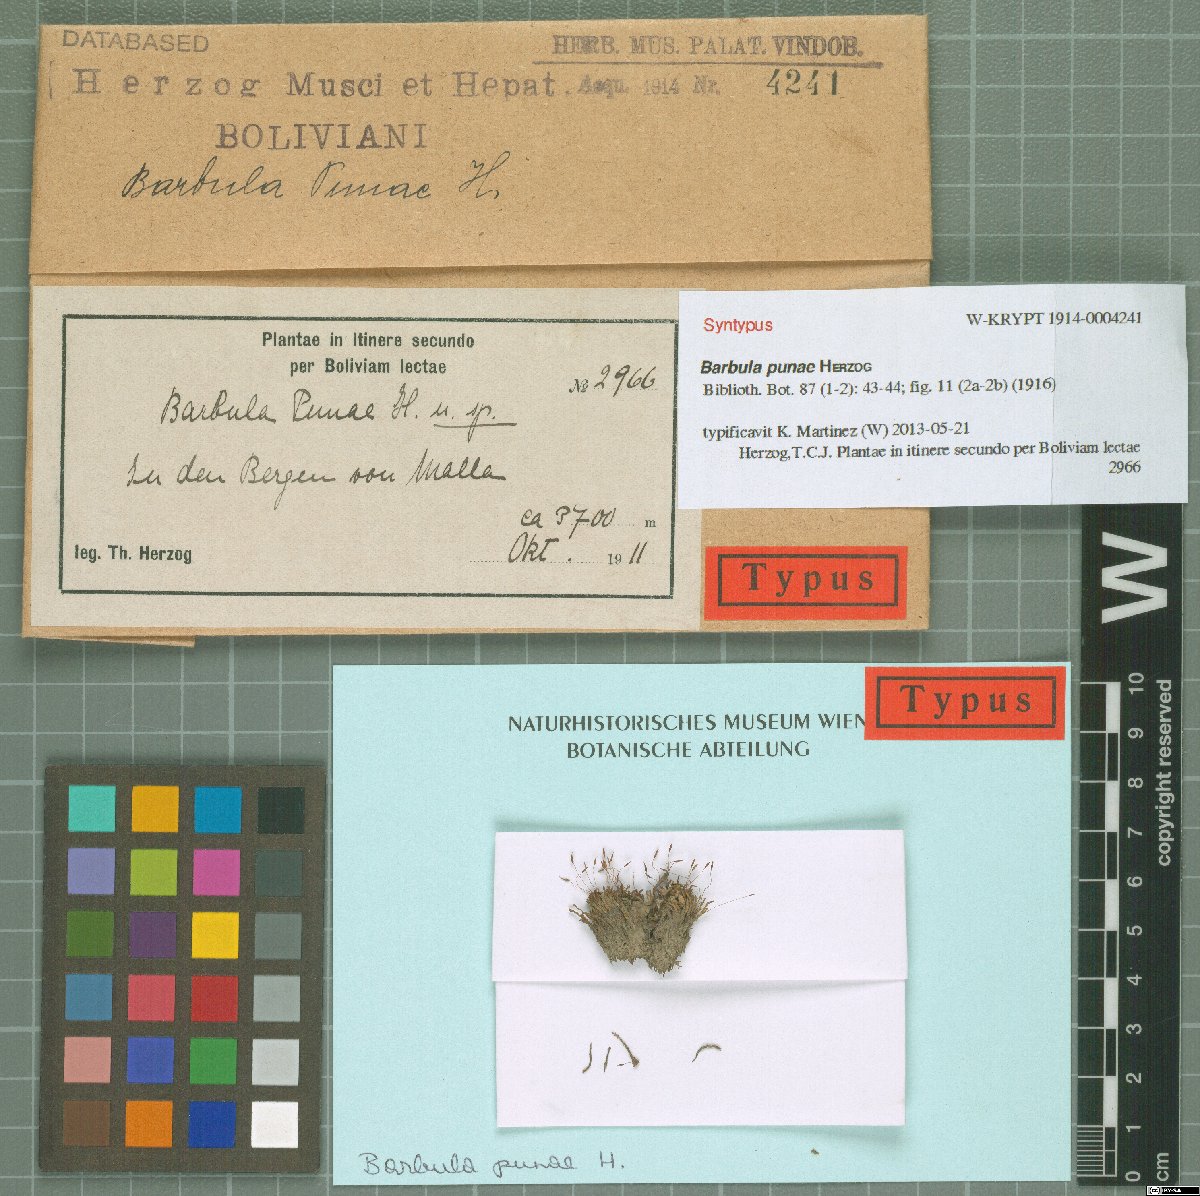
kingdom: Plantae
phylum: Bryophyta
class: Bryopsida
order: Pottiales
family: Pottiaceae
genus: Gertrudiella
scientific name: Gertrudiella glaucescens
